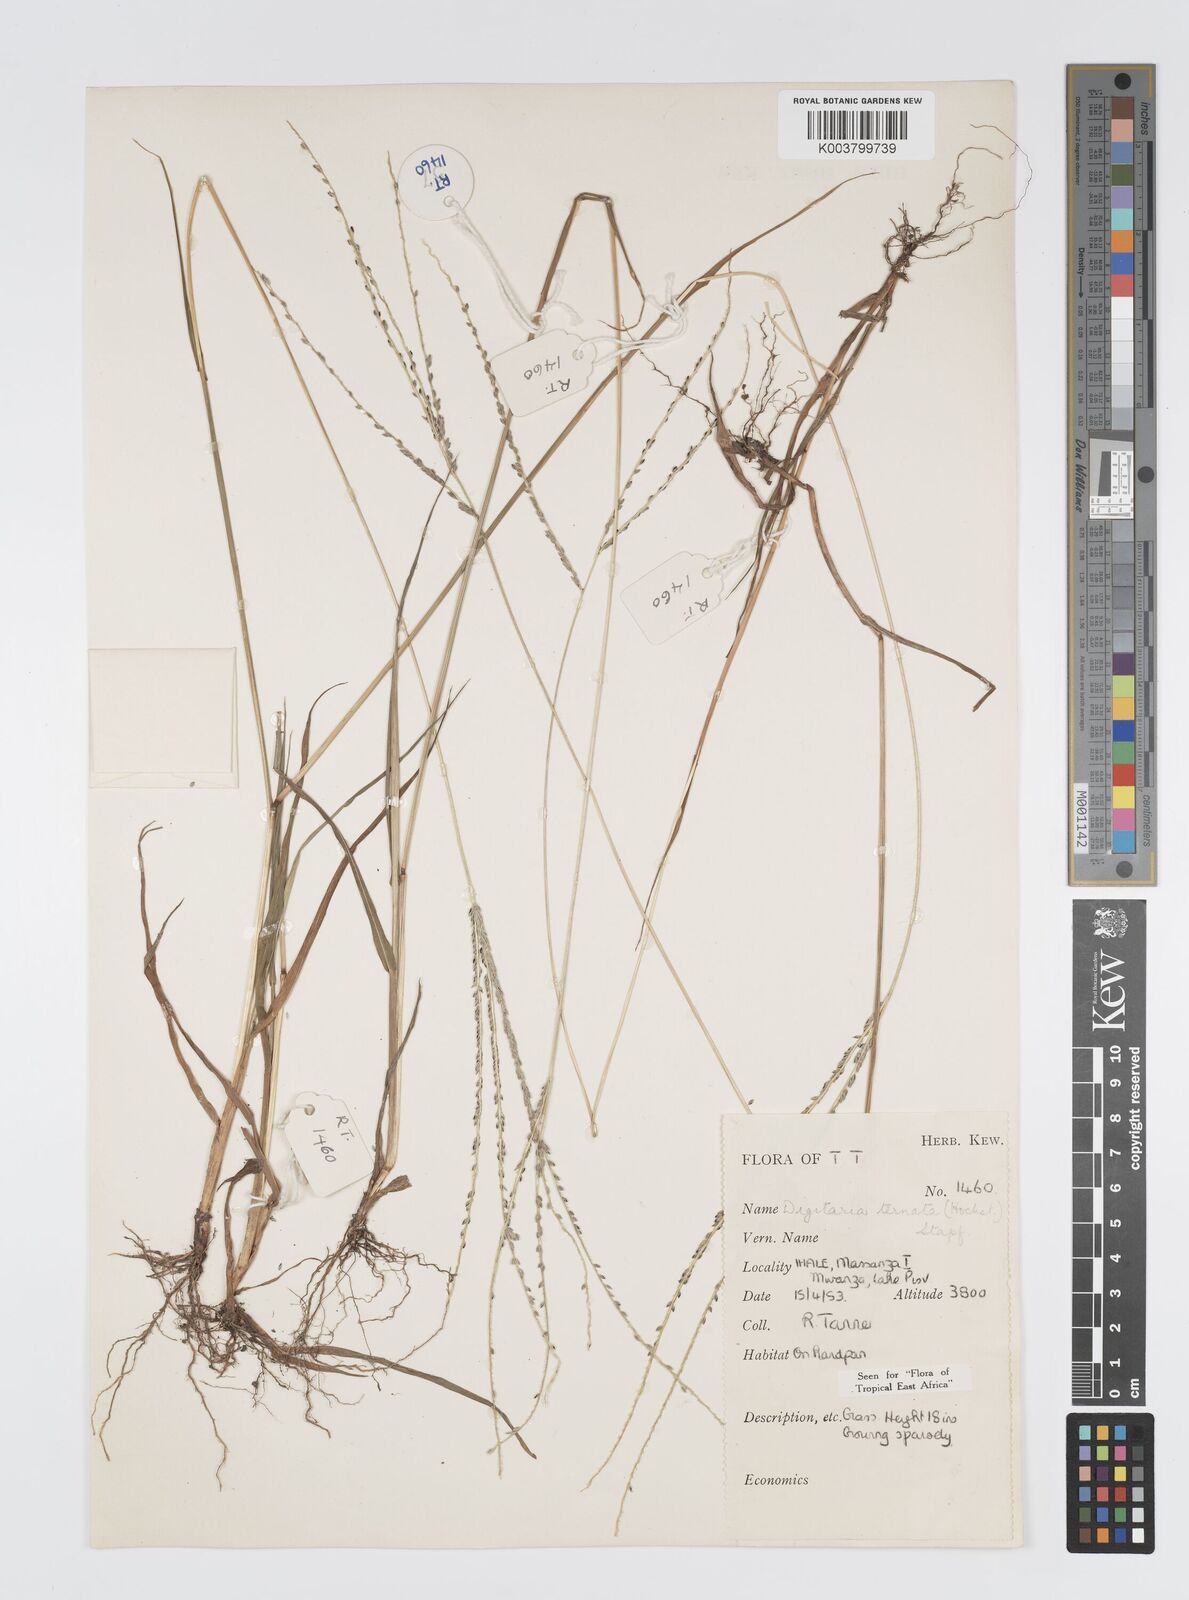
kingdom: Plantae
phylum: Tracheophyta
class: Liliopsida
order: Poales
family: Poaceae
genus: Digitaria
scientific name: Digitaria ternata
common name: Blackseed crabgrass
